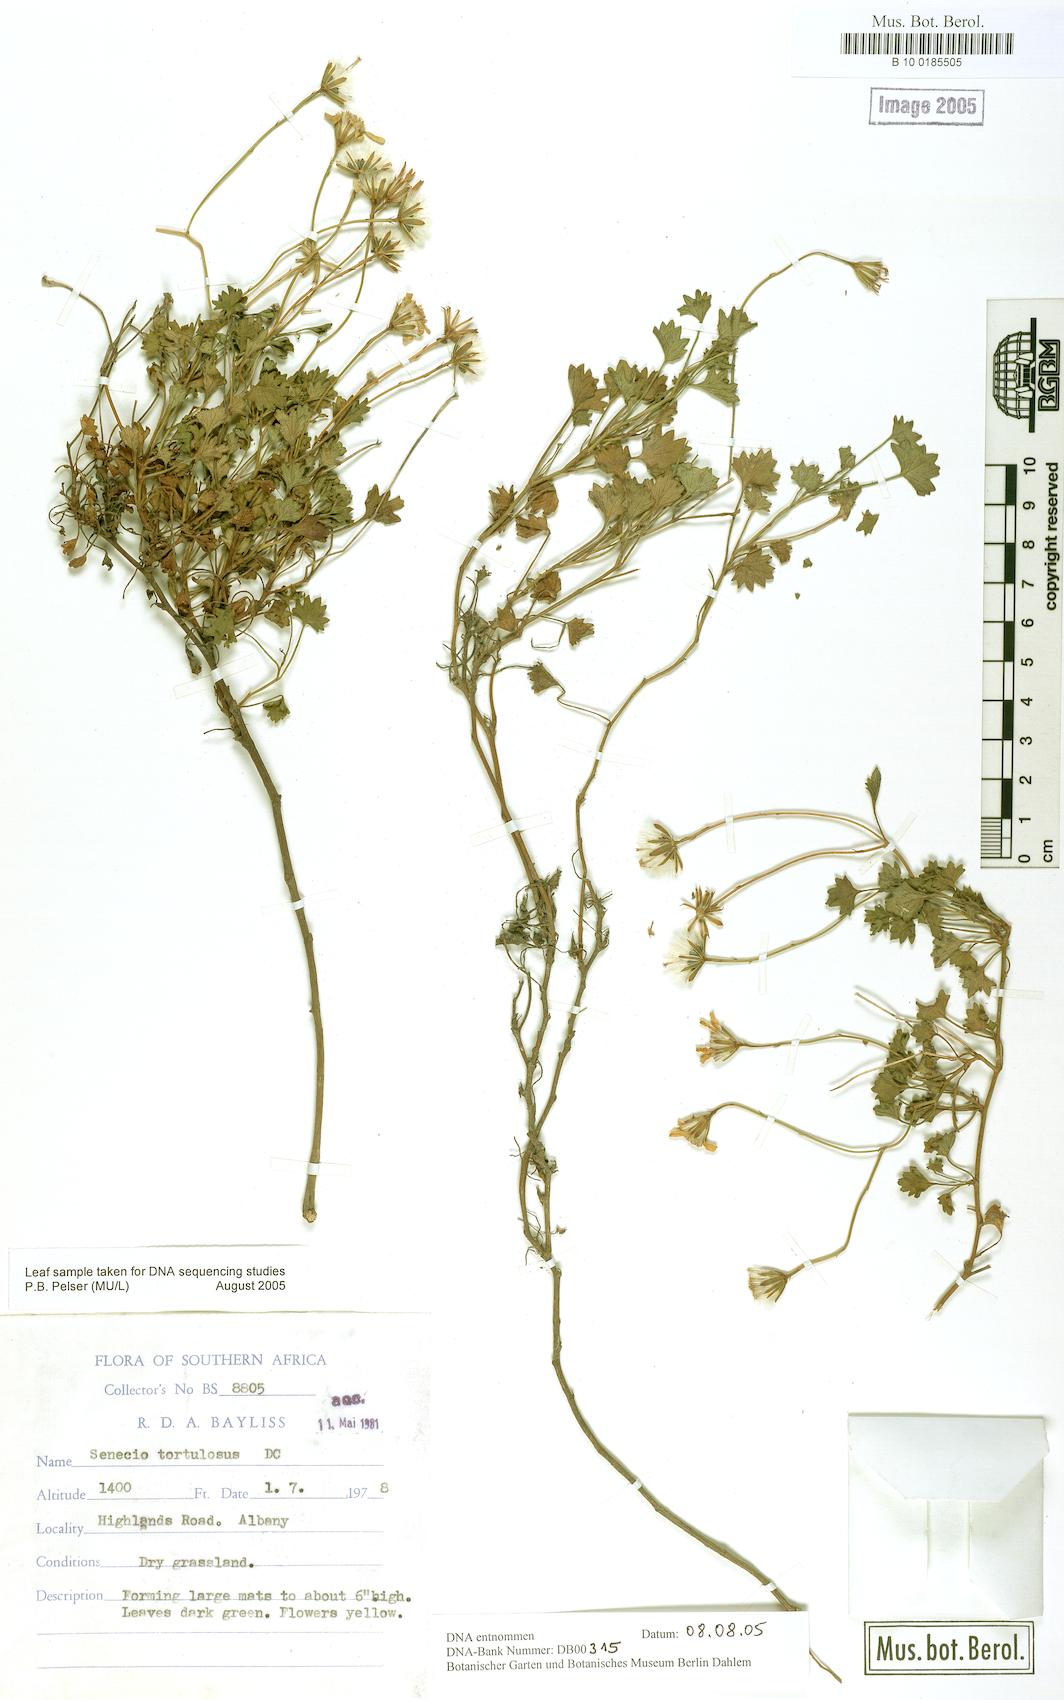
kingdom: Plantae
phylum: Tracheophyta
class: Magnoliopsida
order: Asterales
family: Asteraceae
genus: Senecio
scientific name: Senecio tortuosus
